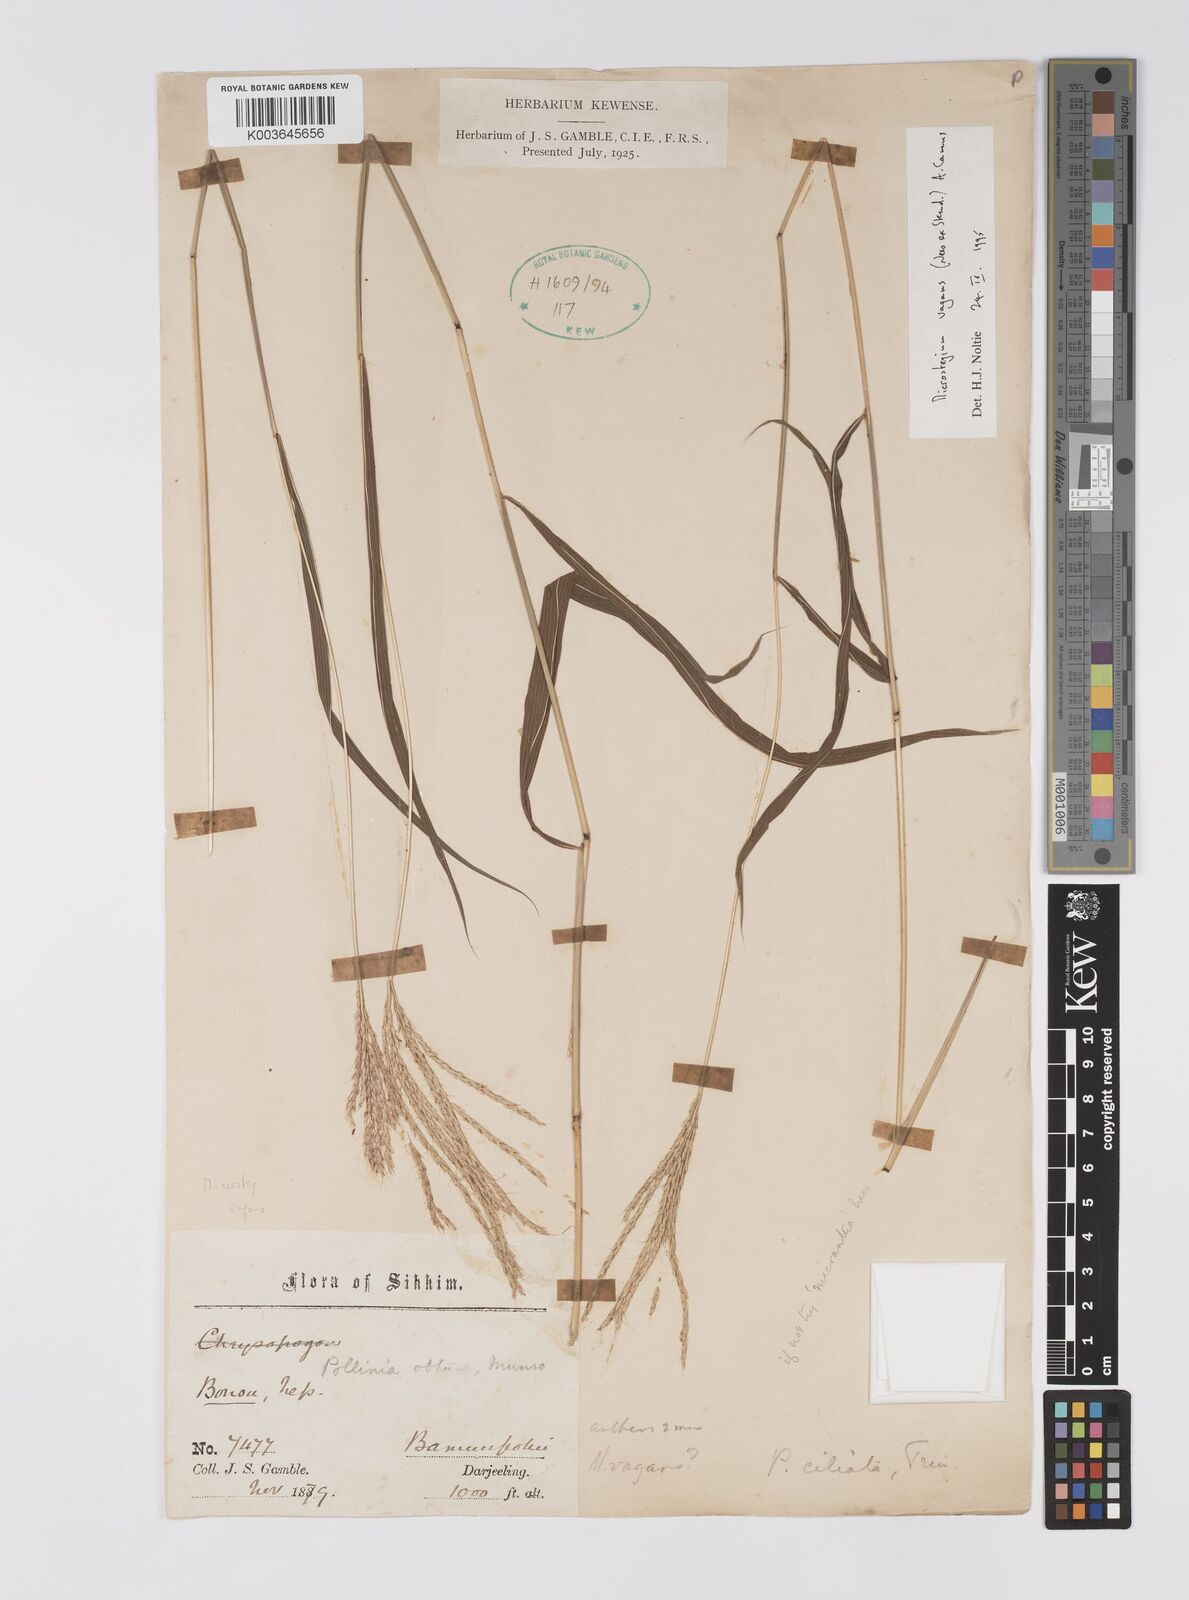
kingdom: Plantae
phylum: Tracheophyta
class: Liliopsida
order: Poales
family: Poaceae
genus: Microstegium
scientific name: Microstegium fasciculatum
